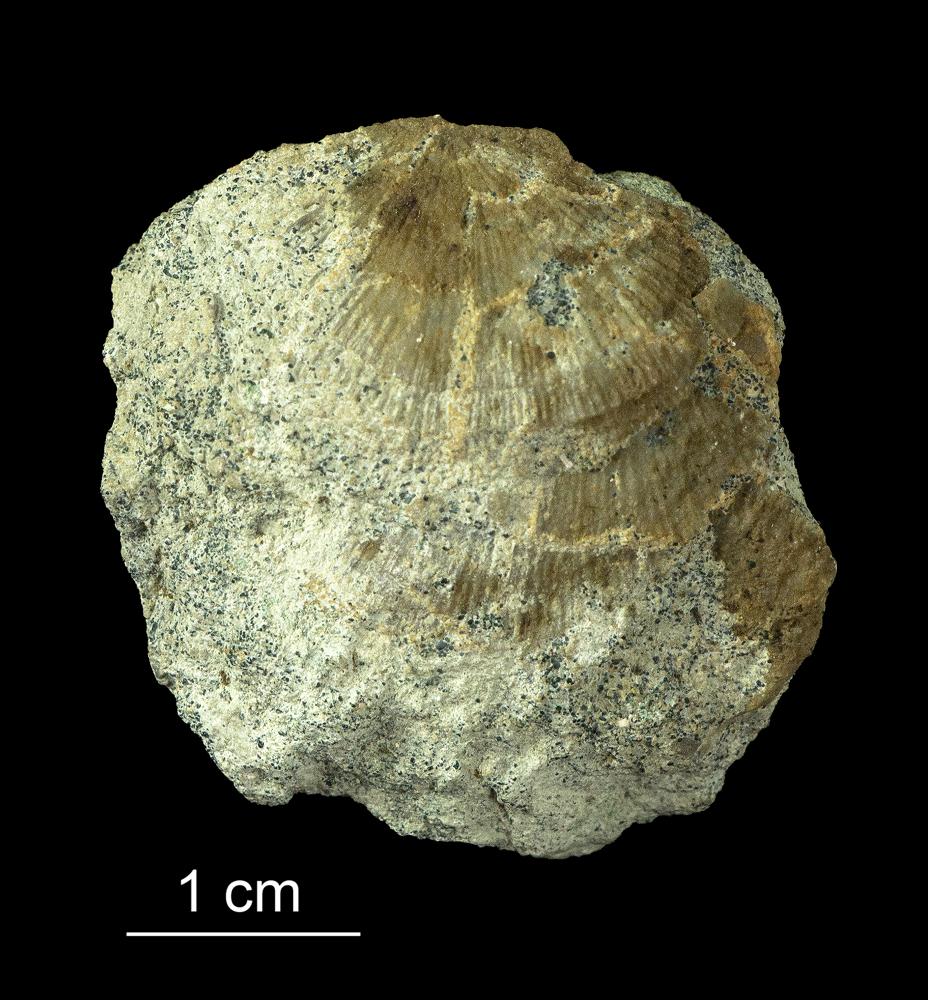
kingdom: Animalia
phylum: Brachiopoda
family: Gonambonitidae
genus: Gonambonites
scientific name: Gonambonites plana
